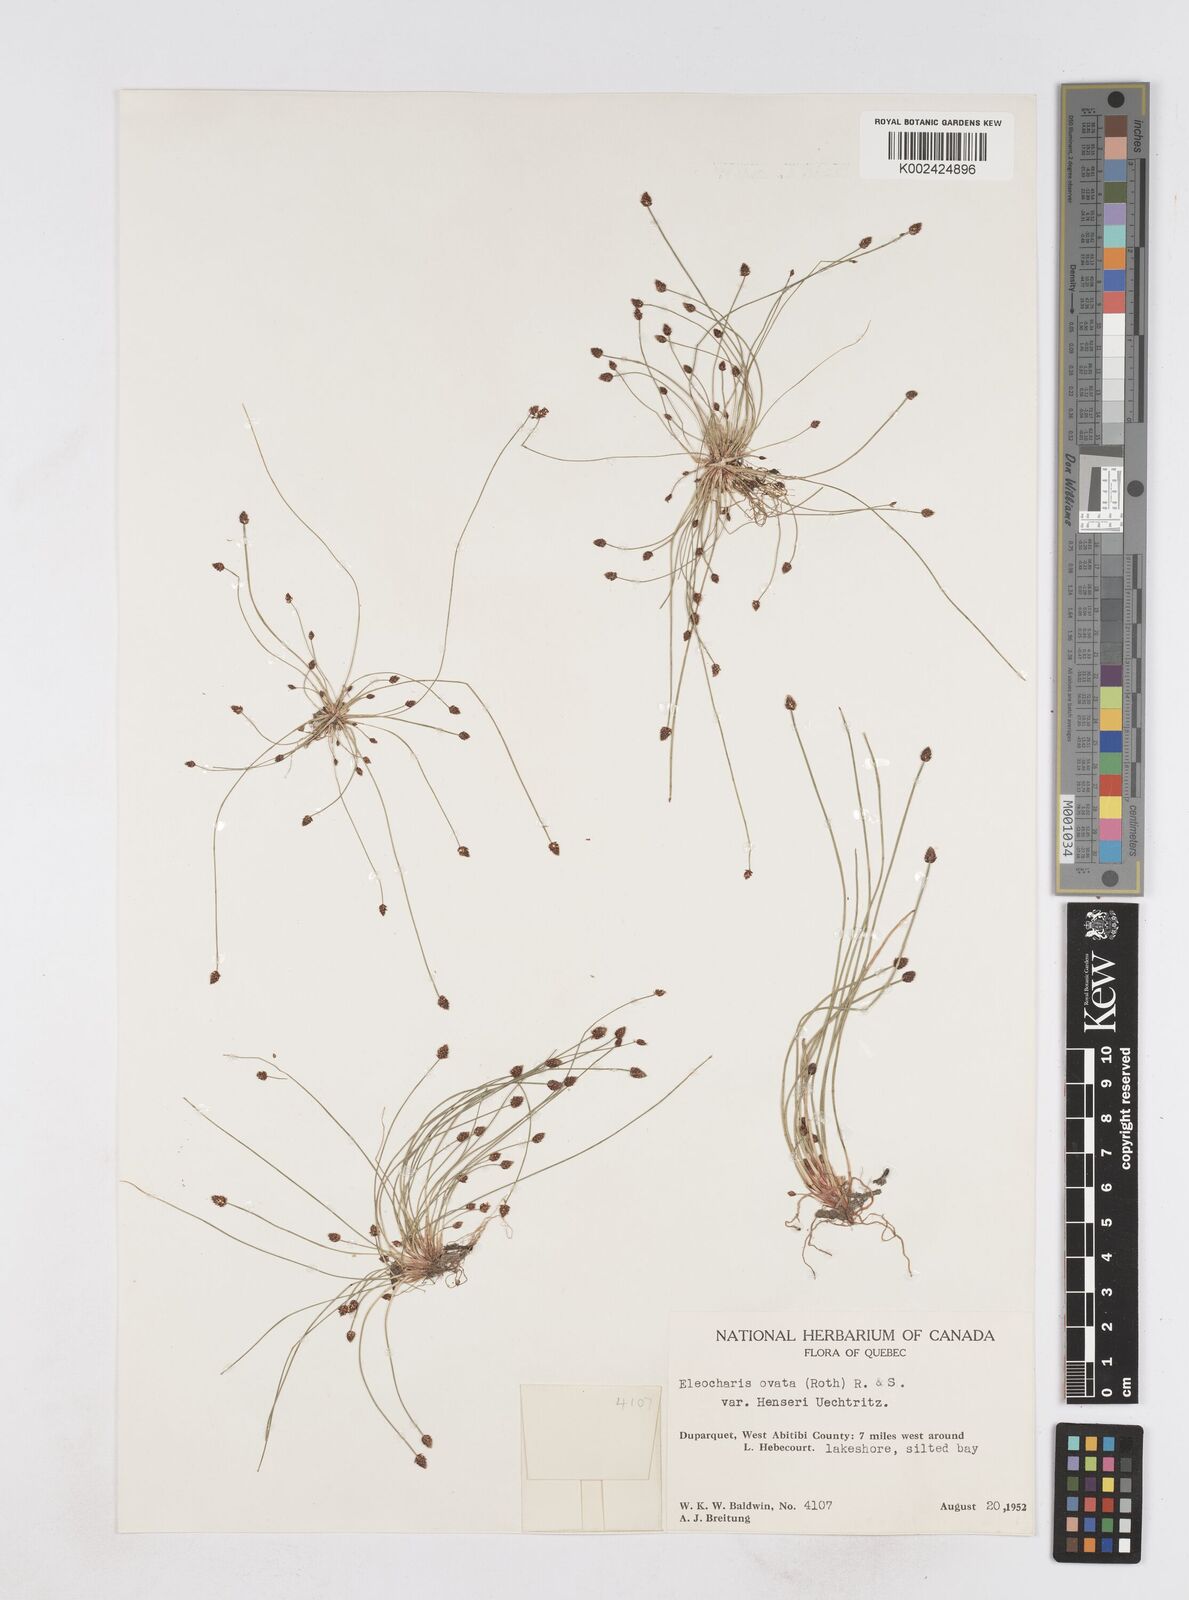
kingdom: Plantae
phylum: Tracheophyta
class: Liliopsida
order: Poales
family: Cyperaceae
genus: Eleocharis
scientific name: Eleocharis ovata
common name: Oval spike-rush
